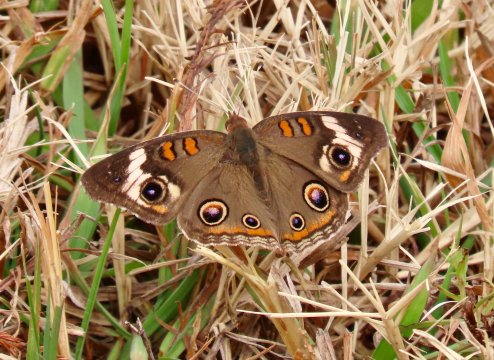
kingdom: Animalia
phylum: Arthropoda
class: Insecta
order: Lepidoptera
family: Nymphalidae
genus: Junonia
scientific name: Junonia coenia
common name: Common Buckeye
